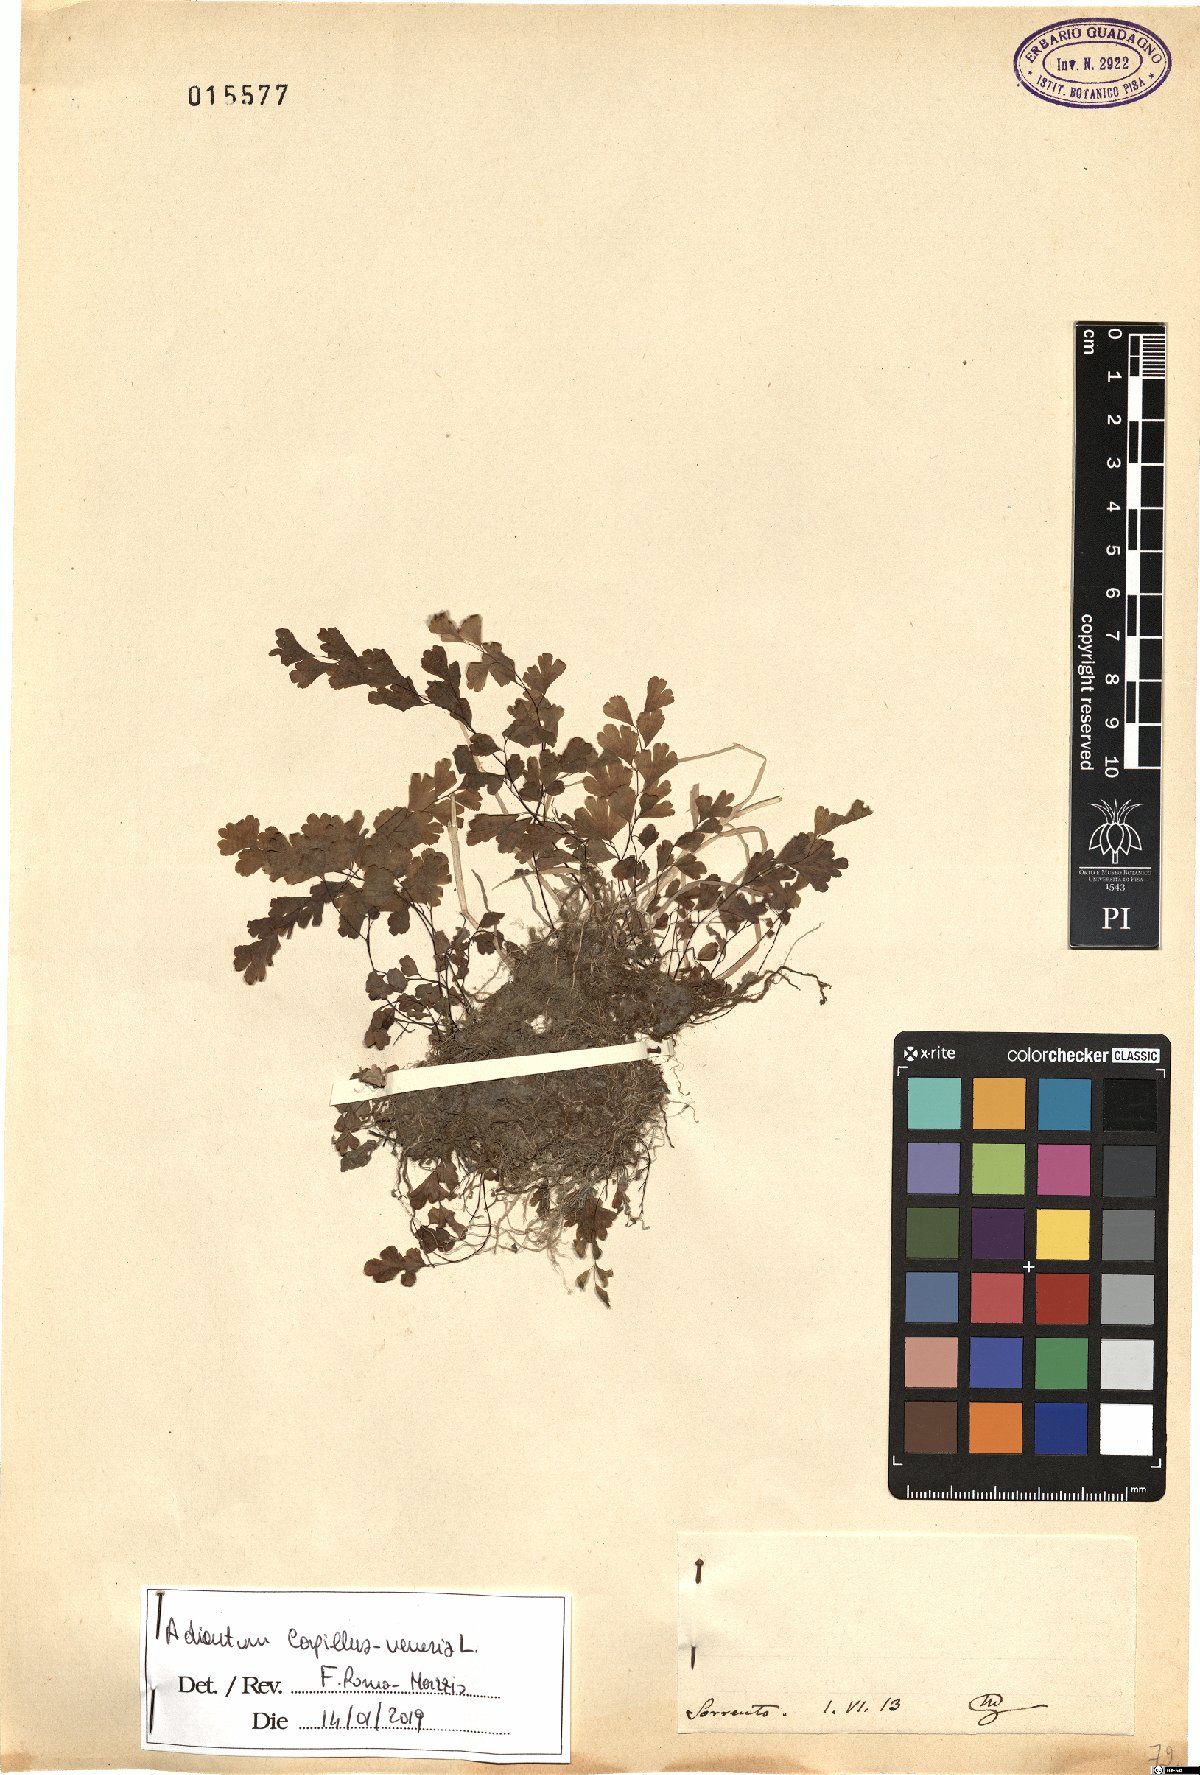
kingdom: Plantae
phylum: Tracheophyta
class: Polypodiopsida
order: Polypodiales
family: Pteridaceae
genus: Adiantum
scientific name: Adiantum capillus-veneris
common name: Maidenhair fern
